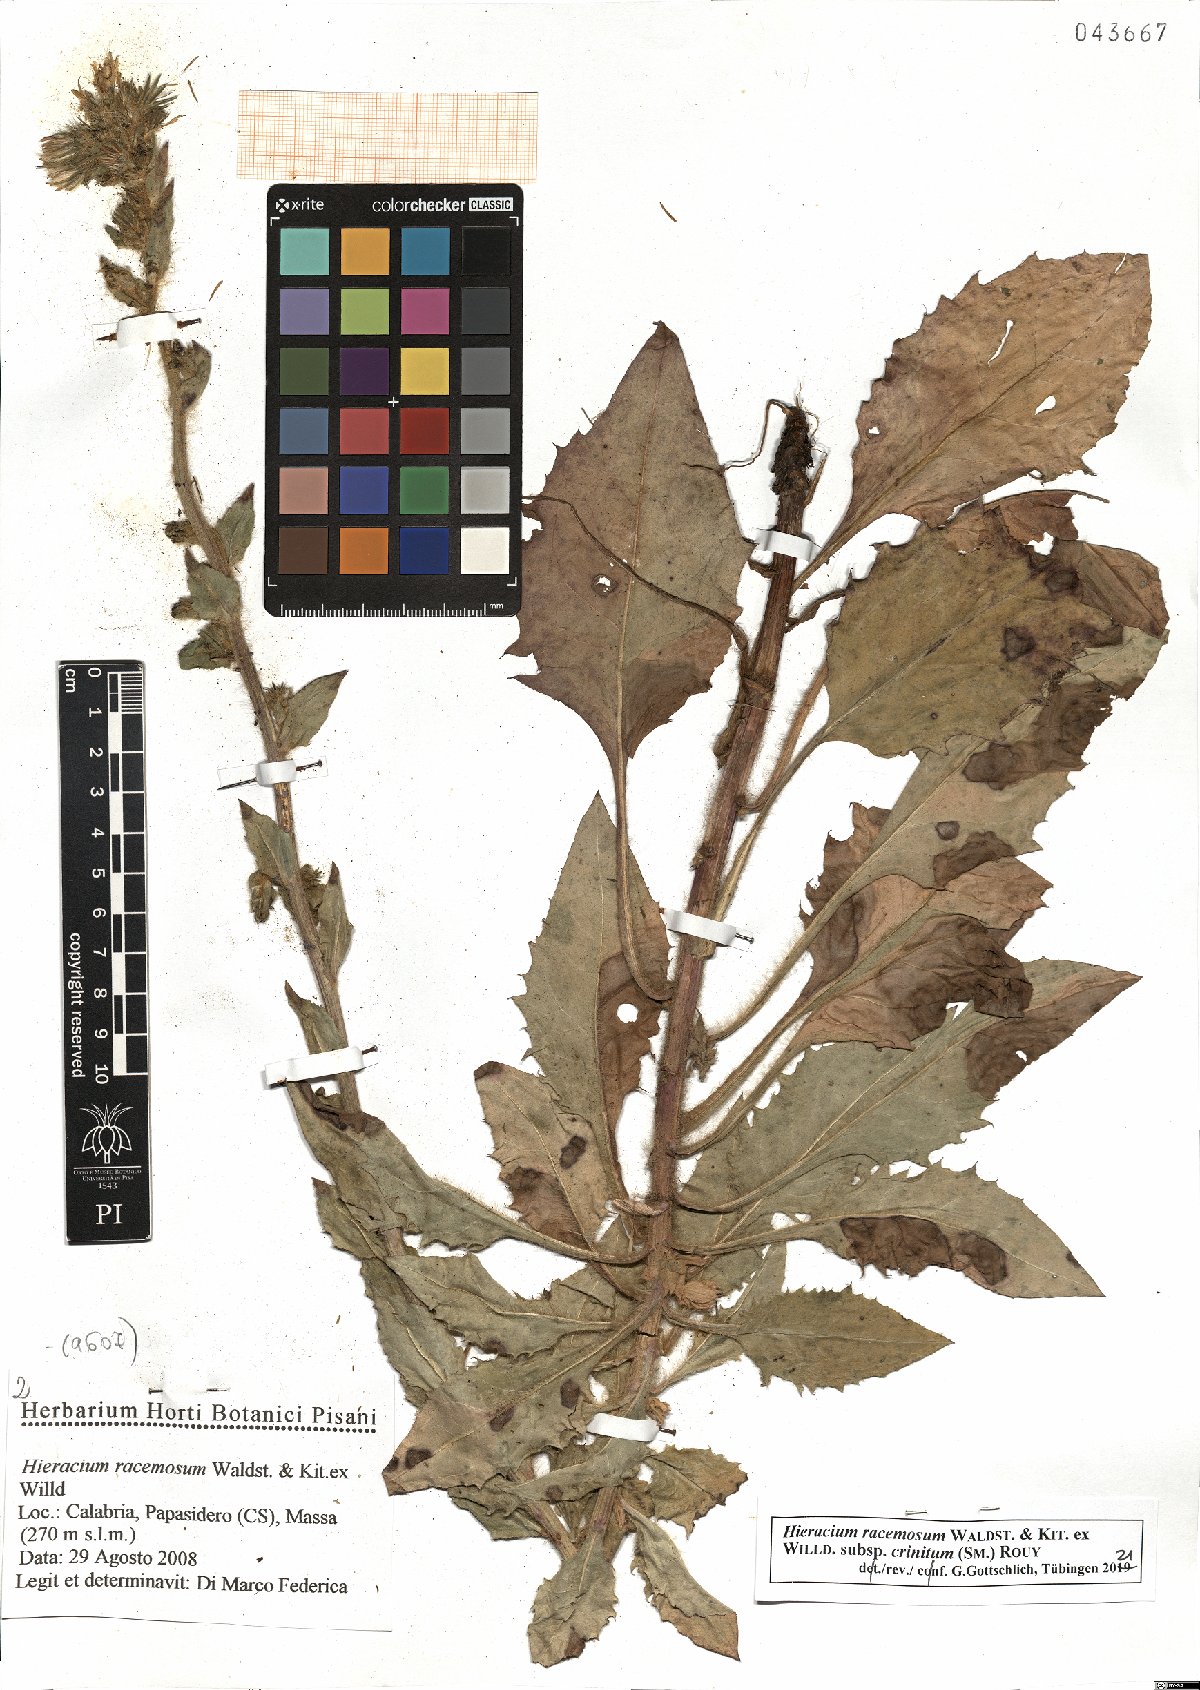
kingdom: Plantae
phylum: Tracheophyta
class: Magnoliopsida
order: Asterales
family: Asteraceae
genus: Hieracium
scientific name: Hieracium racemosum
